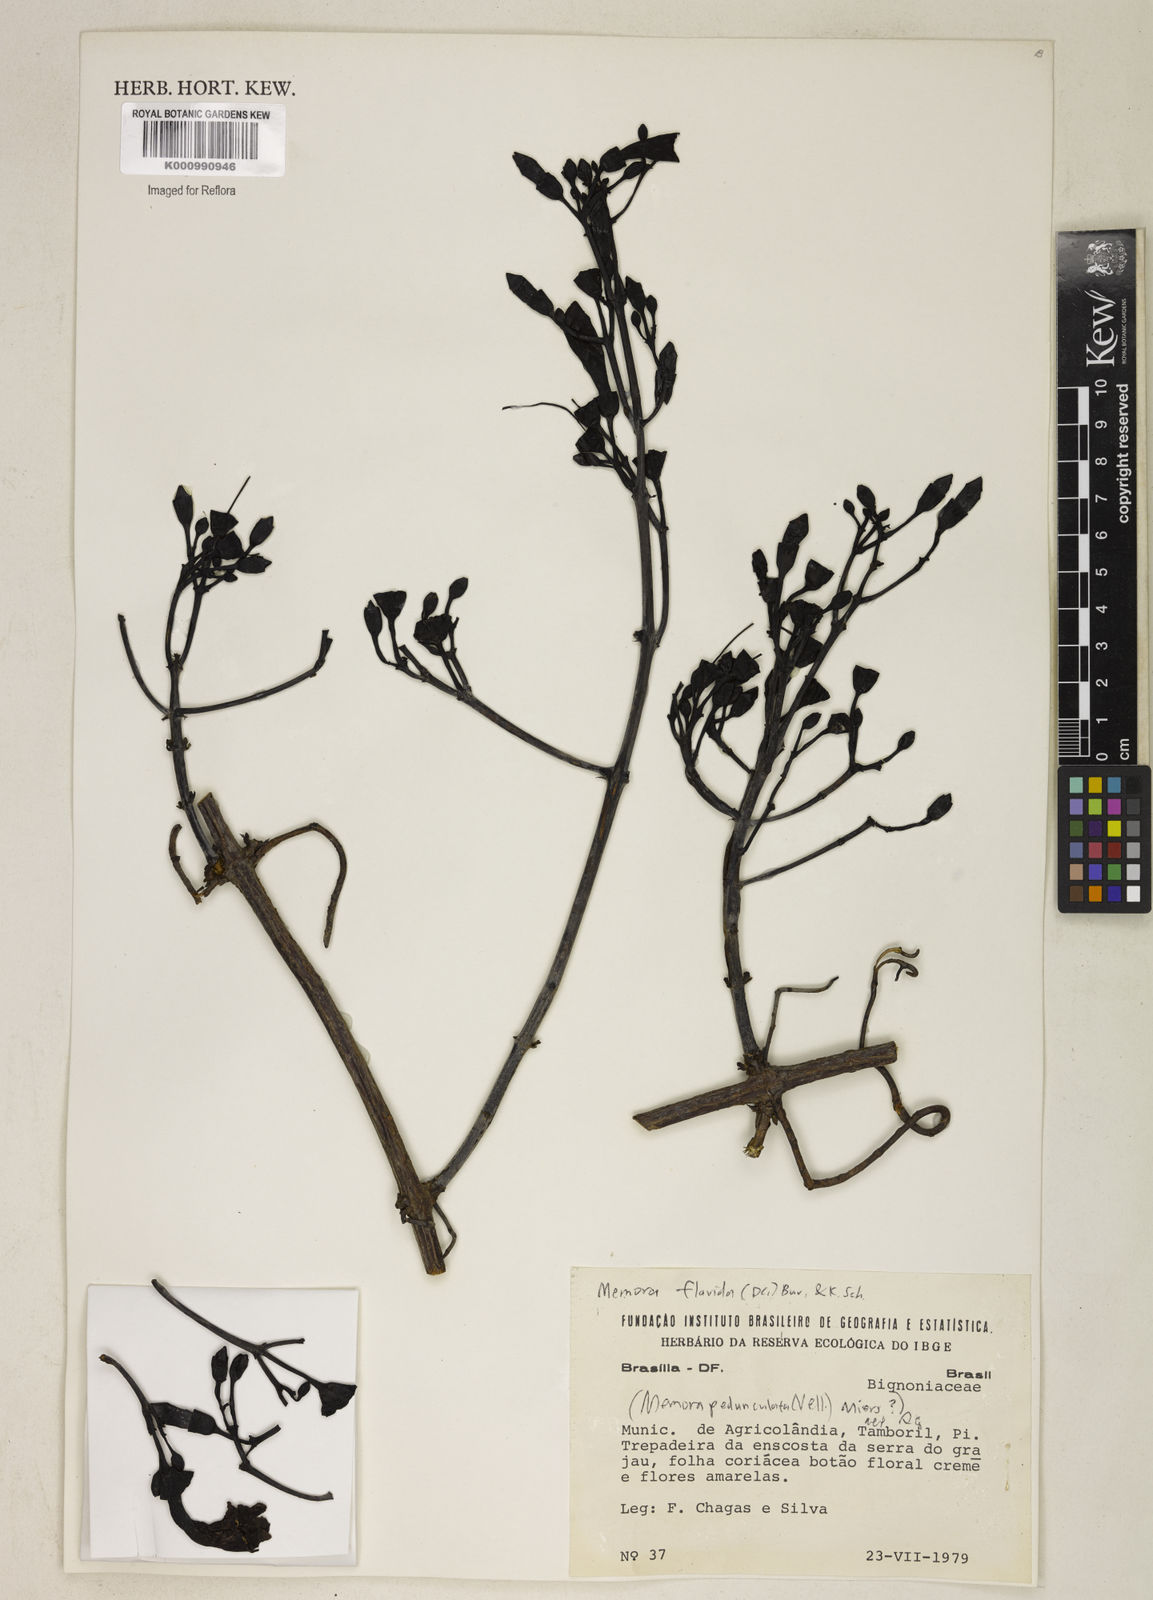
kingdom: Plantae
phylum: Tracheophyta
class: Magnoliopsida
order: Lamiales
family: Bignoniaceae
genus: Adenocalymma
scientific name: Adenocalymma neoflavidum
